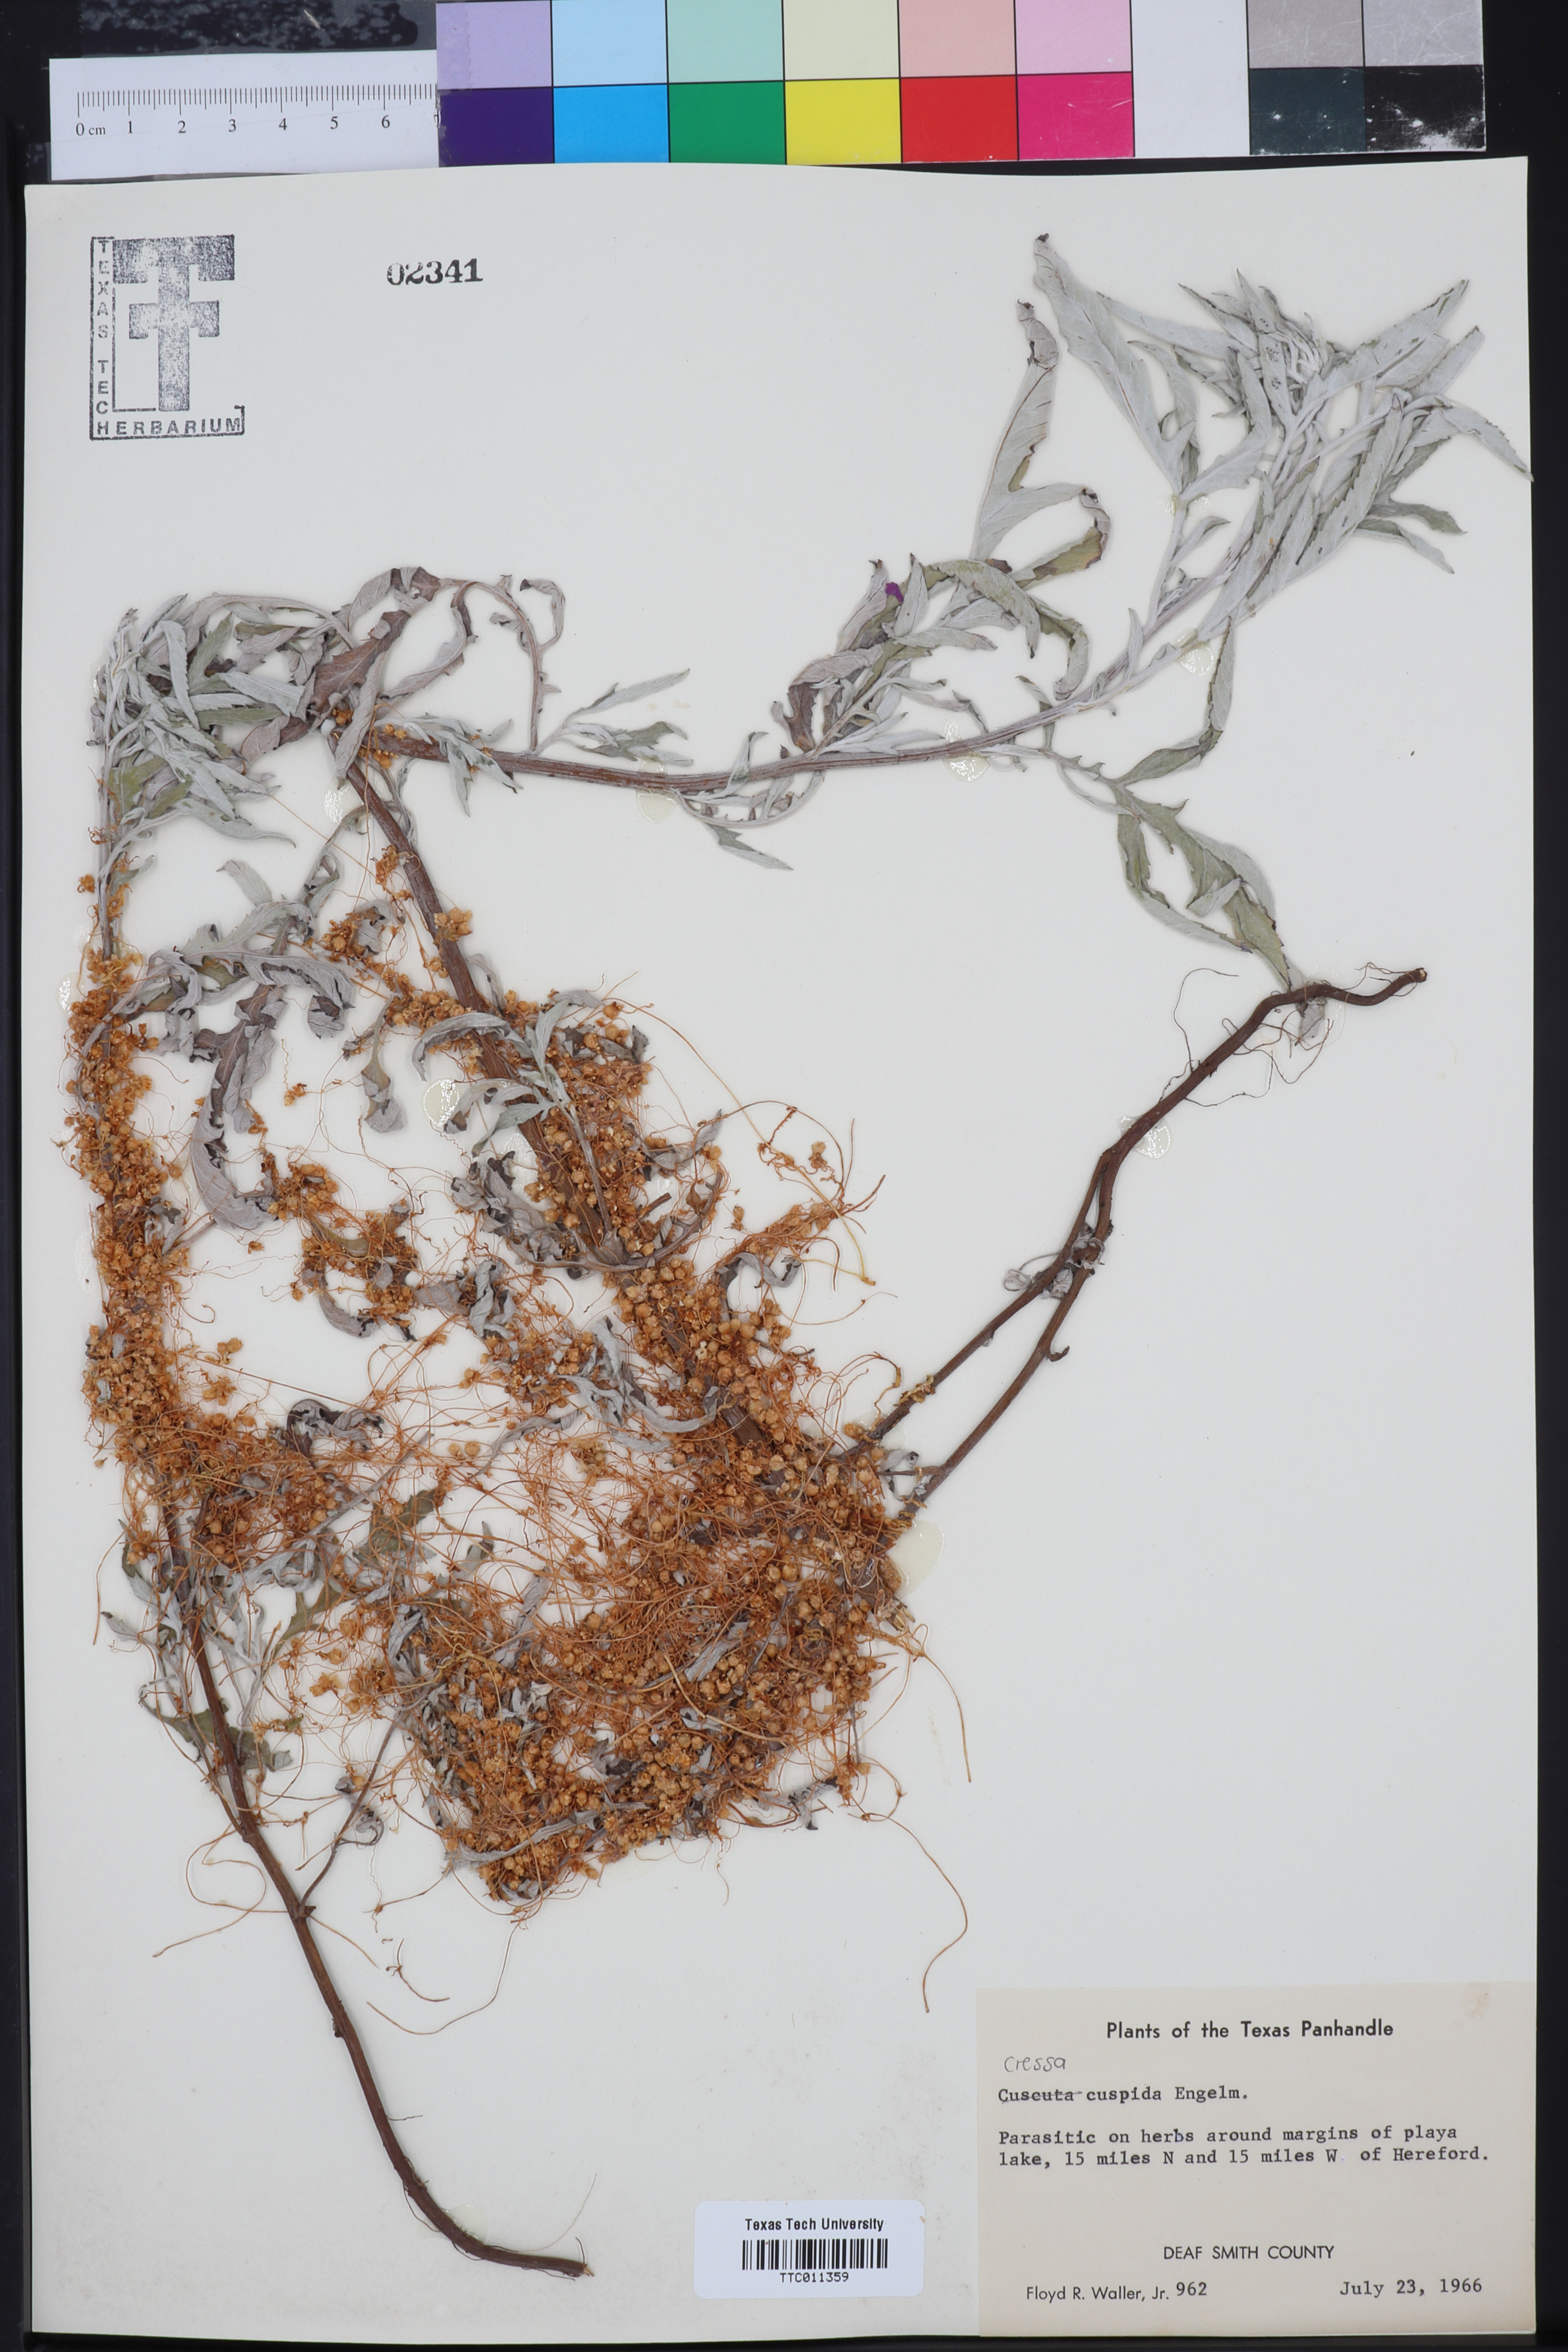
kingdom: Plantae
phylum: Tracheophyta
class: Magnoliopsida
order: Solanales
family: Convolvulaceae
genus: Cressa
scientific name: Cressa
